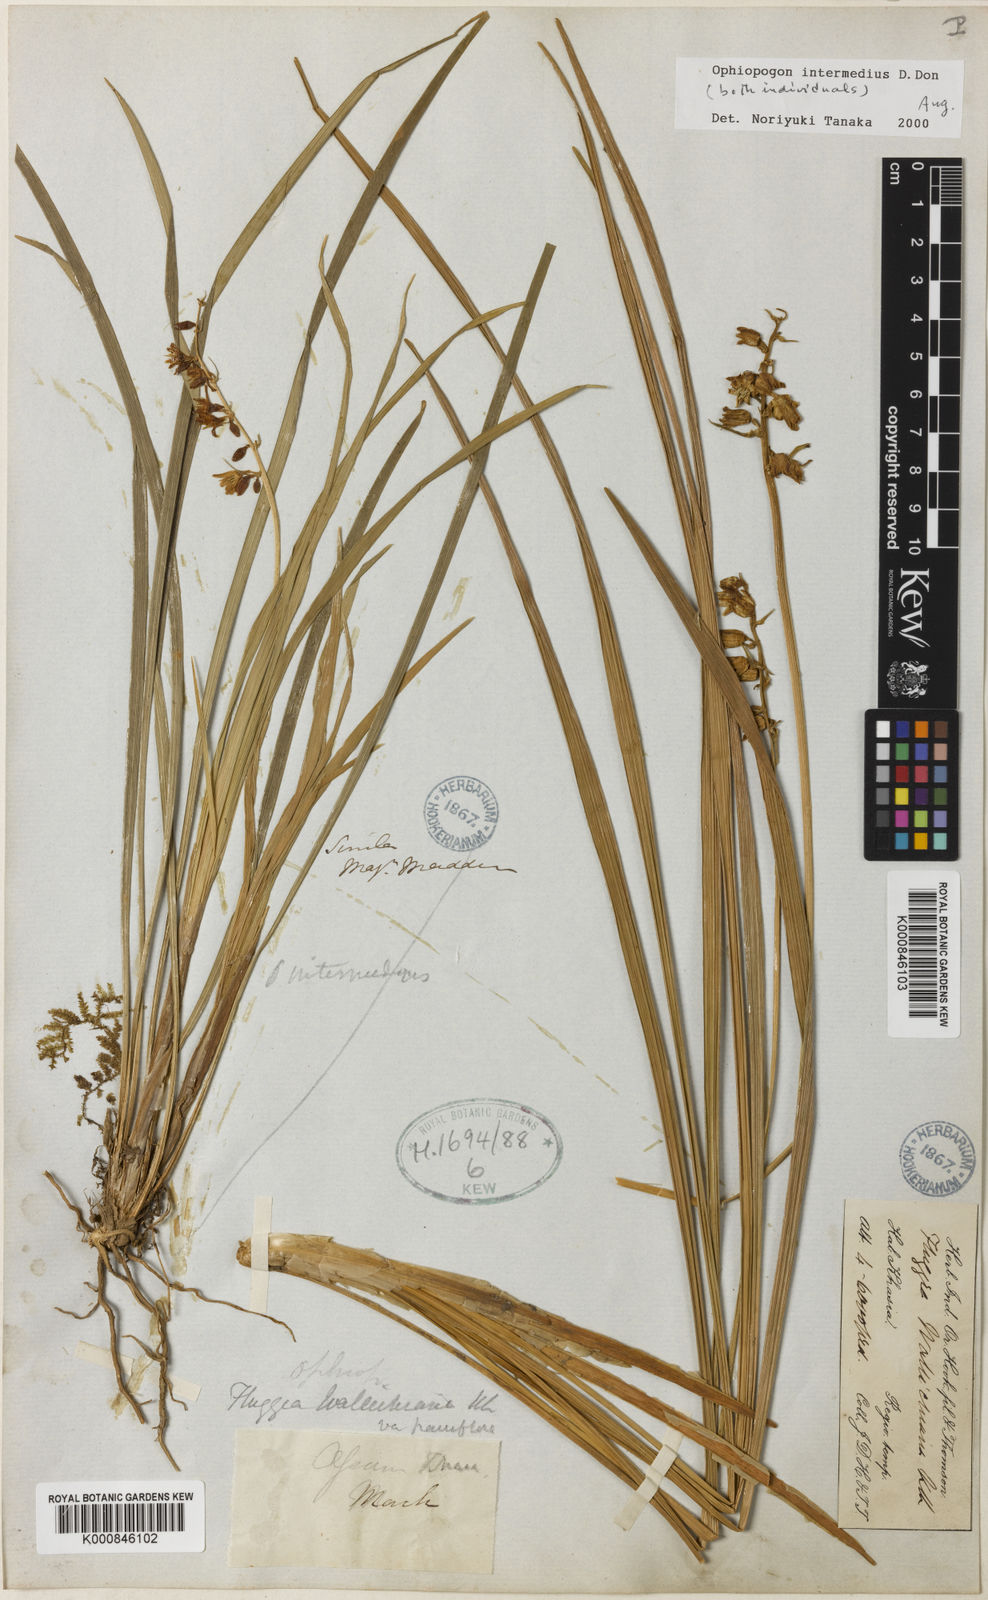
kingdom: Plantae
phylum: Tracheophyta
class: Liliopsida
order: Asparagales
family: Asparagaceae
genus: Ophiopogon
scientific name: Ophiopogon
